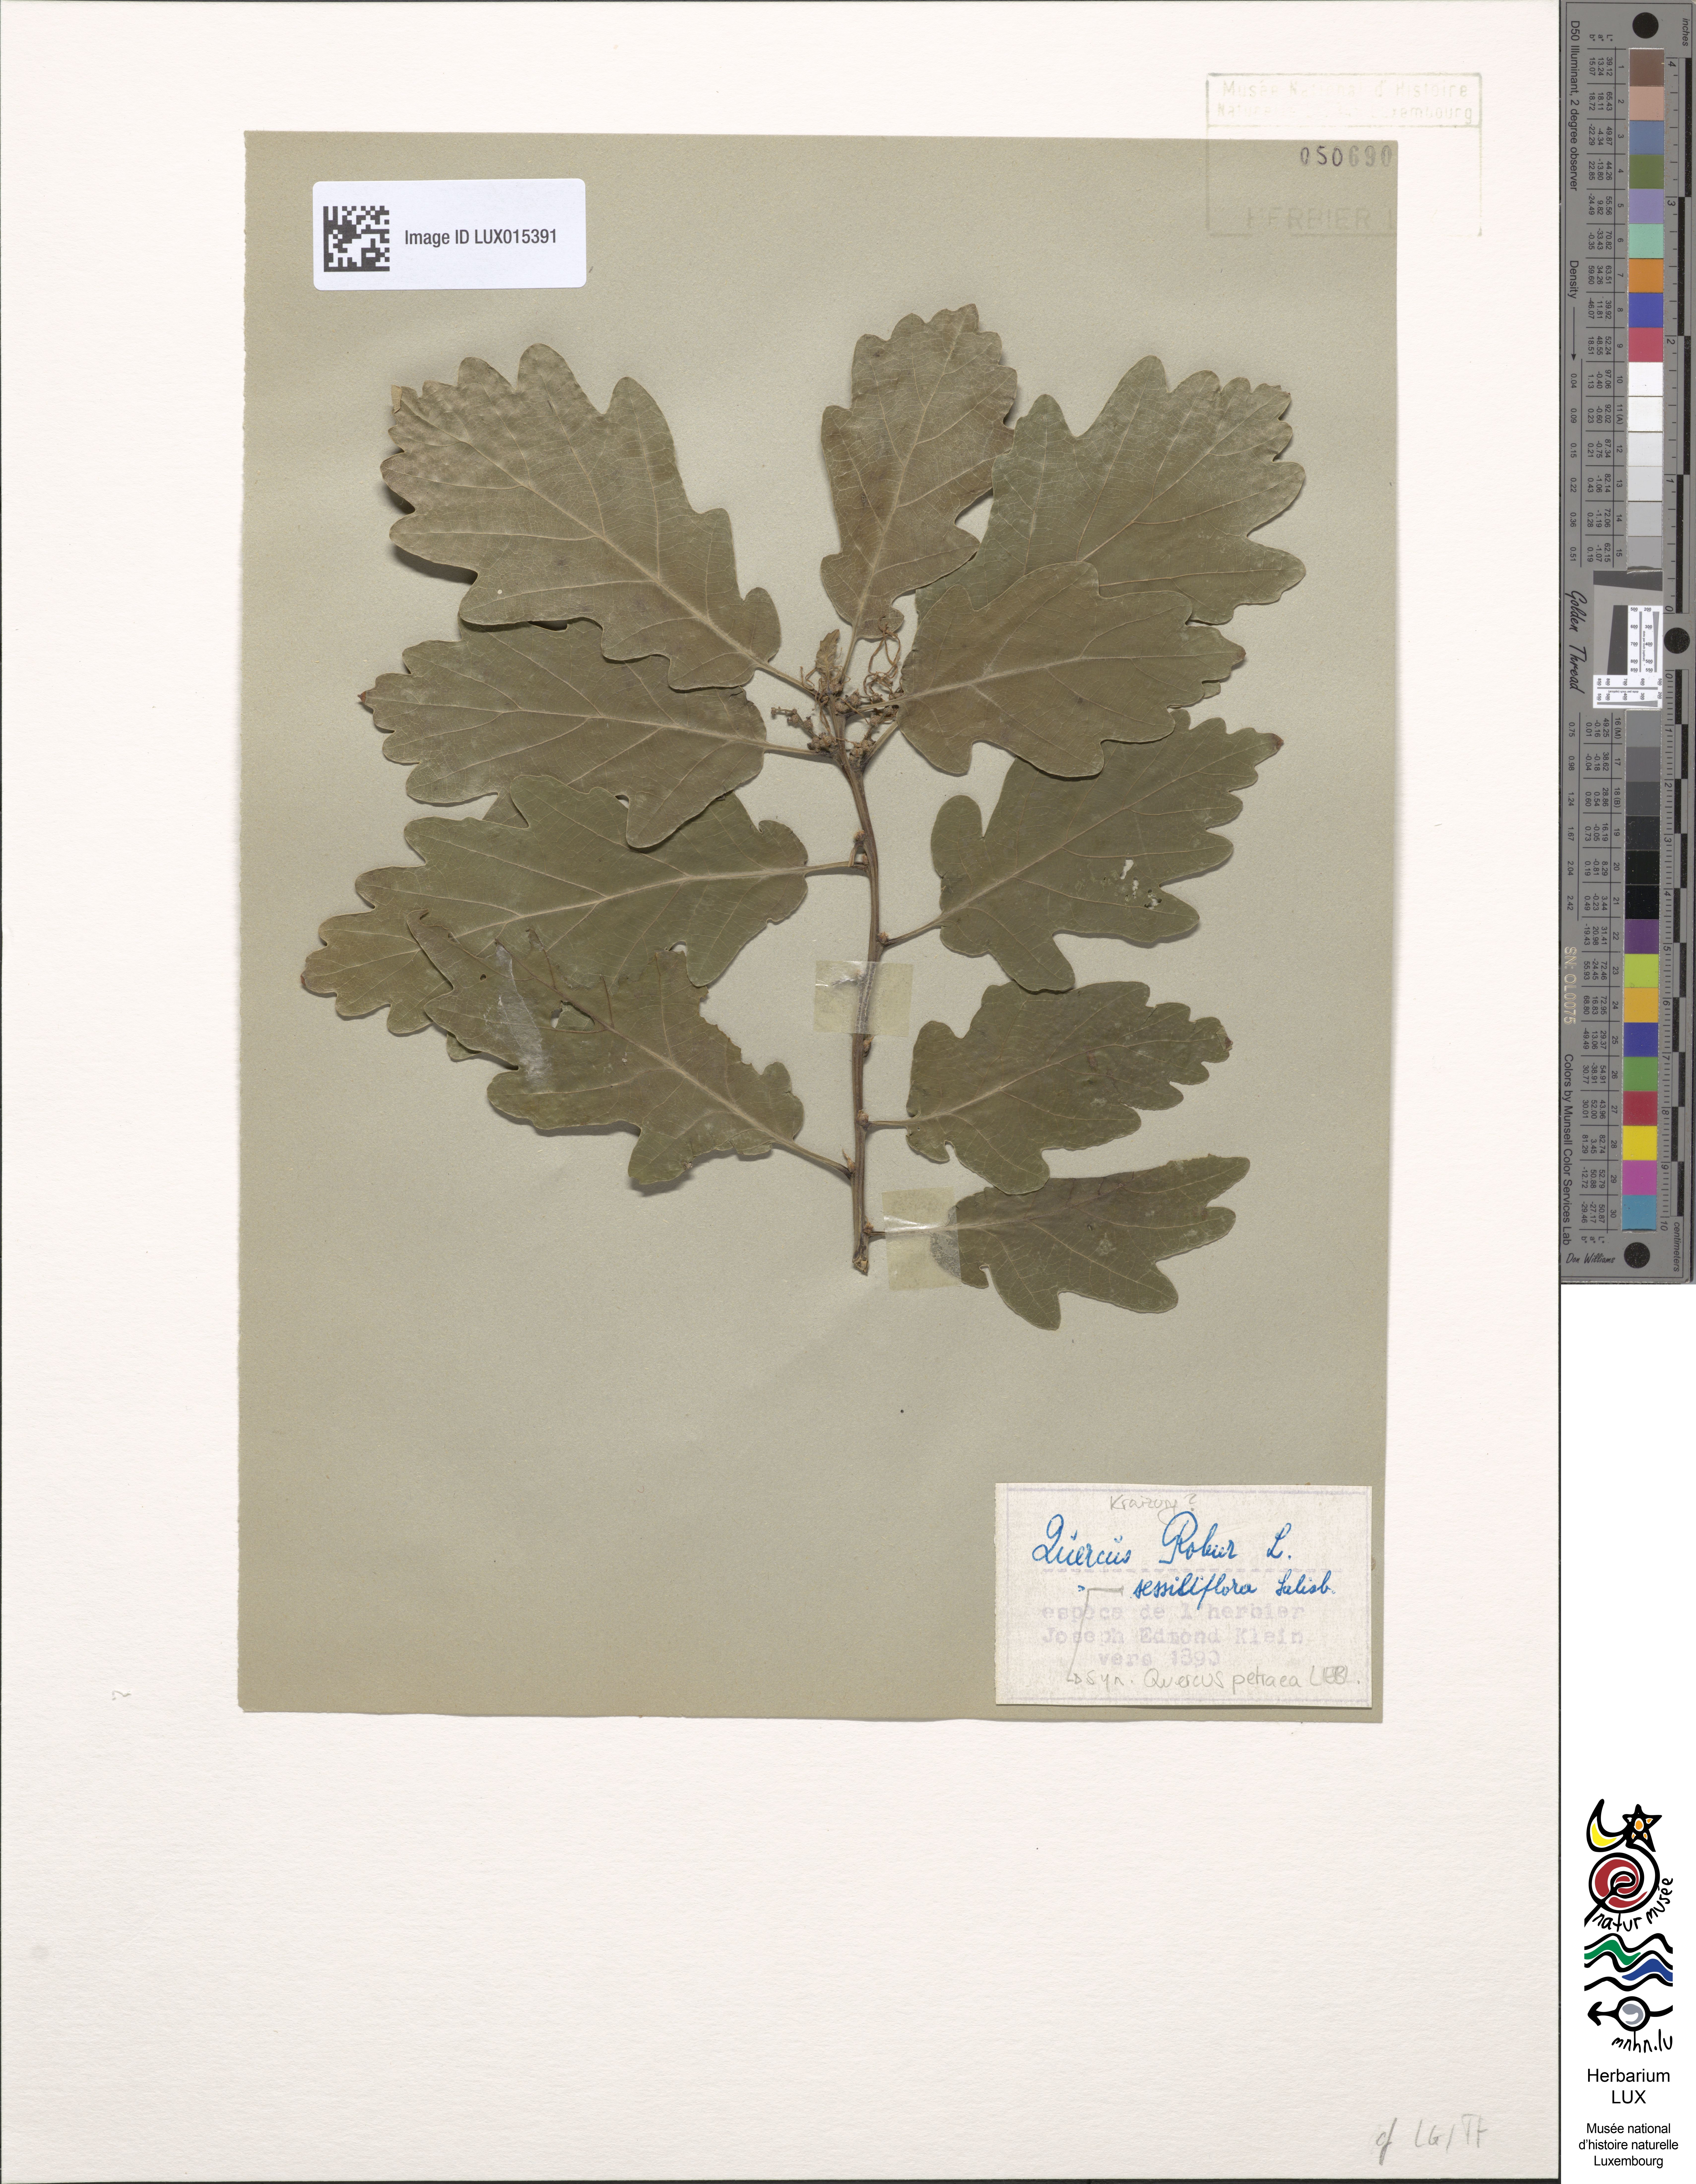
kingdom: Plantae
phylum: Tracheophyta
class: Magnoliopsida
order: Fagales
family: Fagaceae
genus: Quercus
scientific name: Quercus robur
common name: Pedunculate oak
